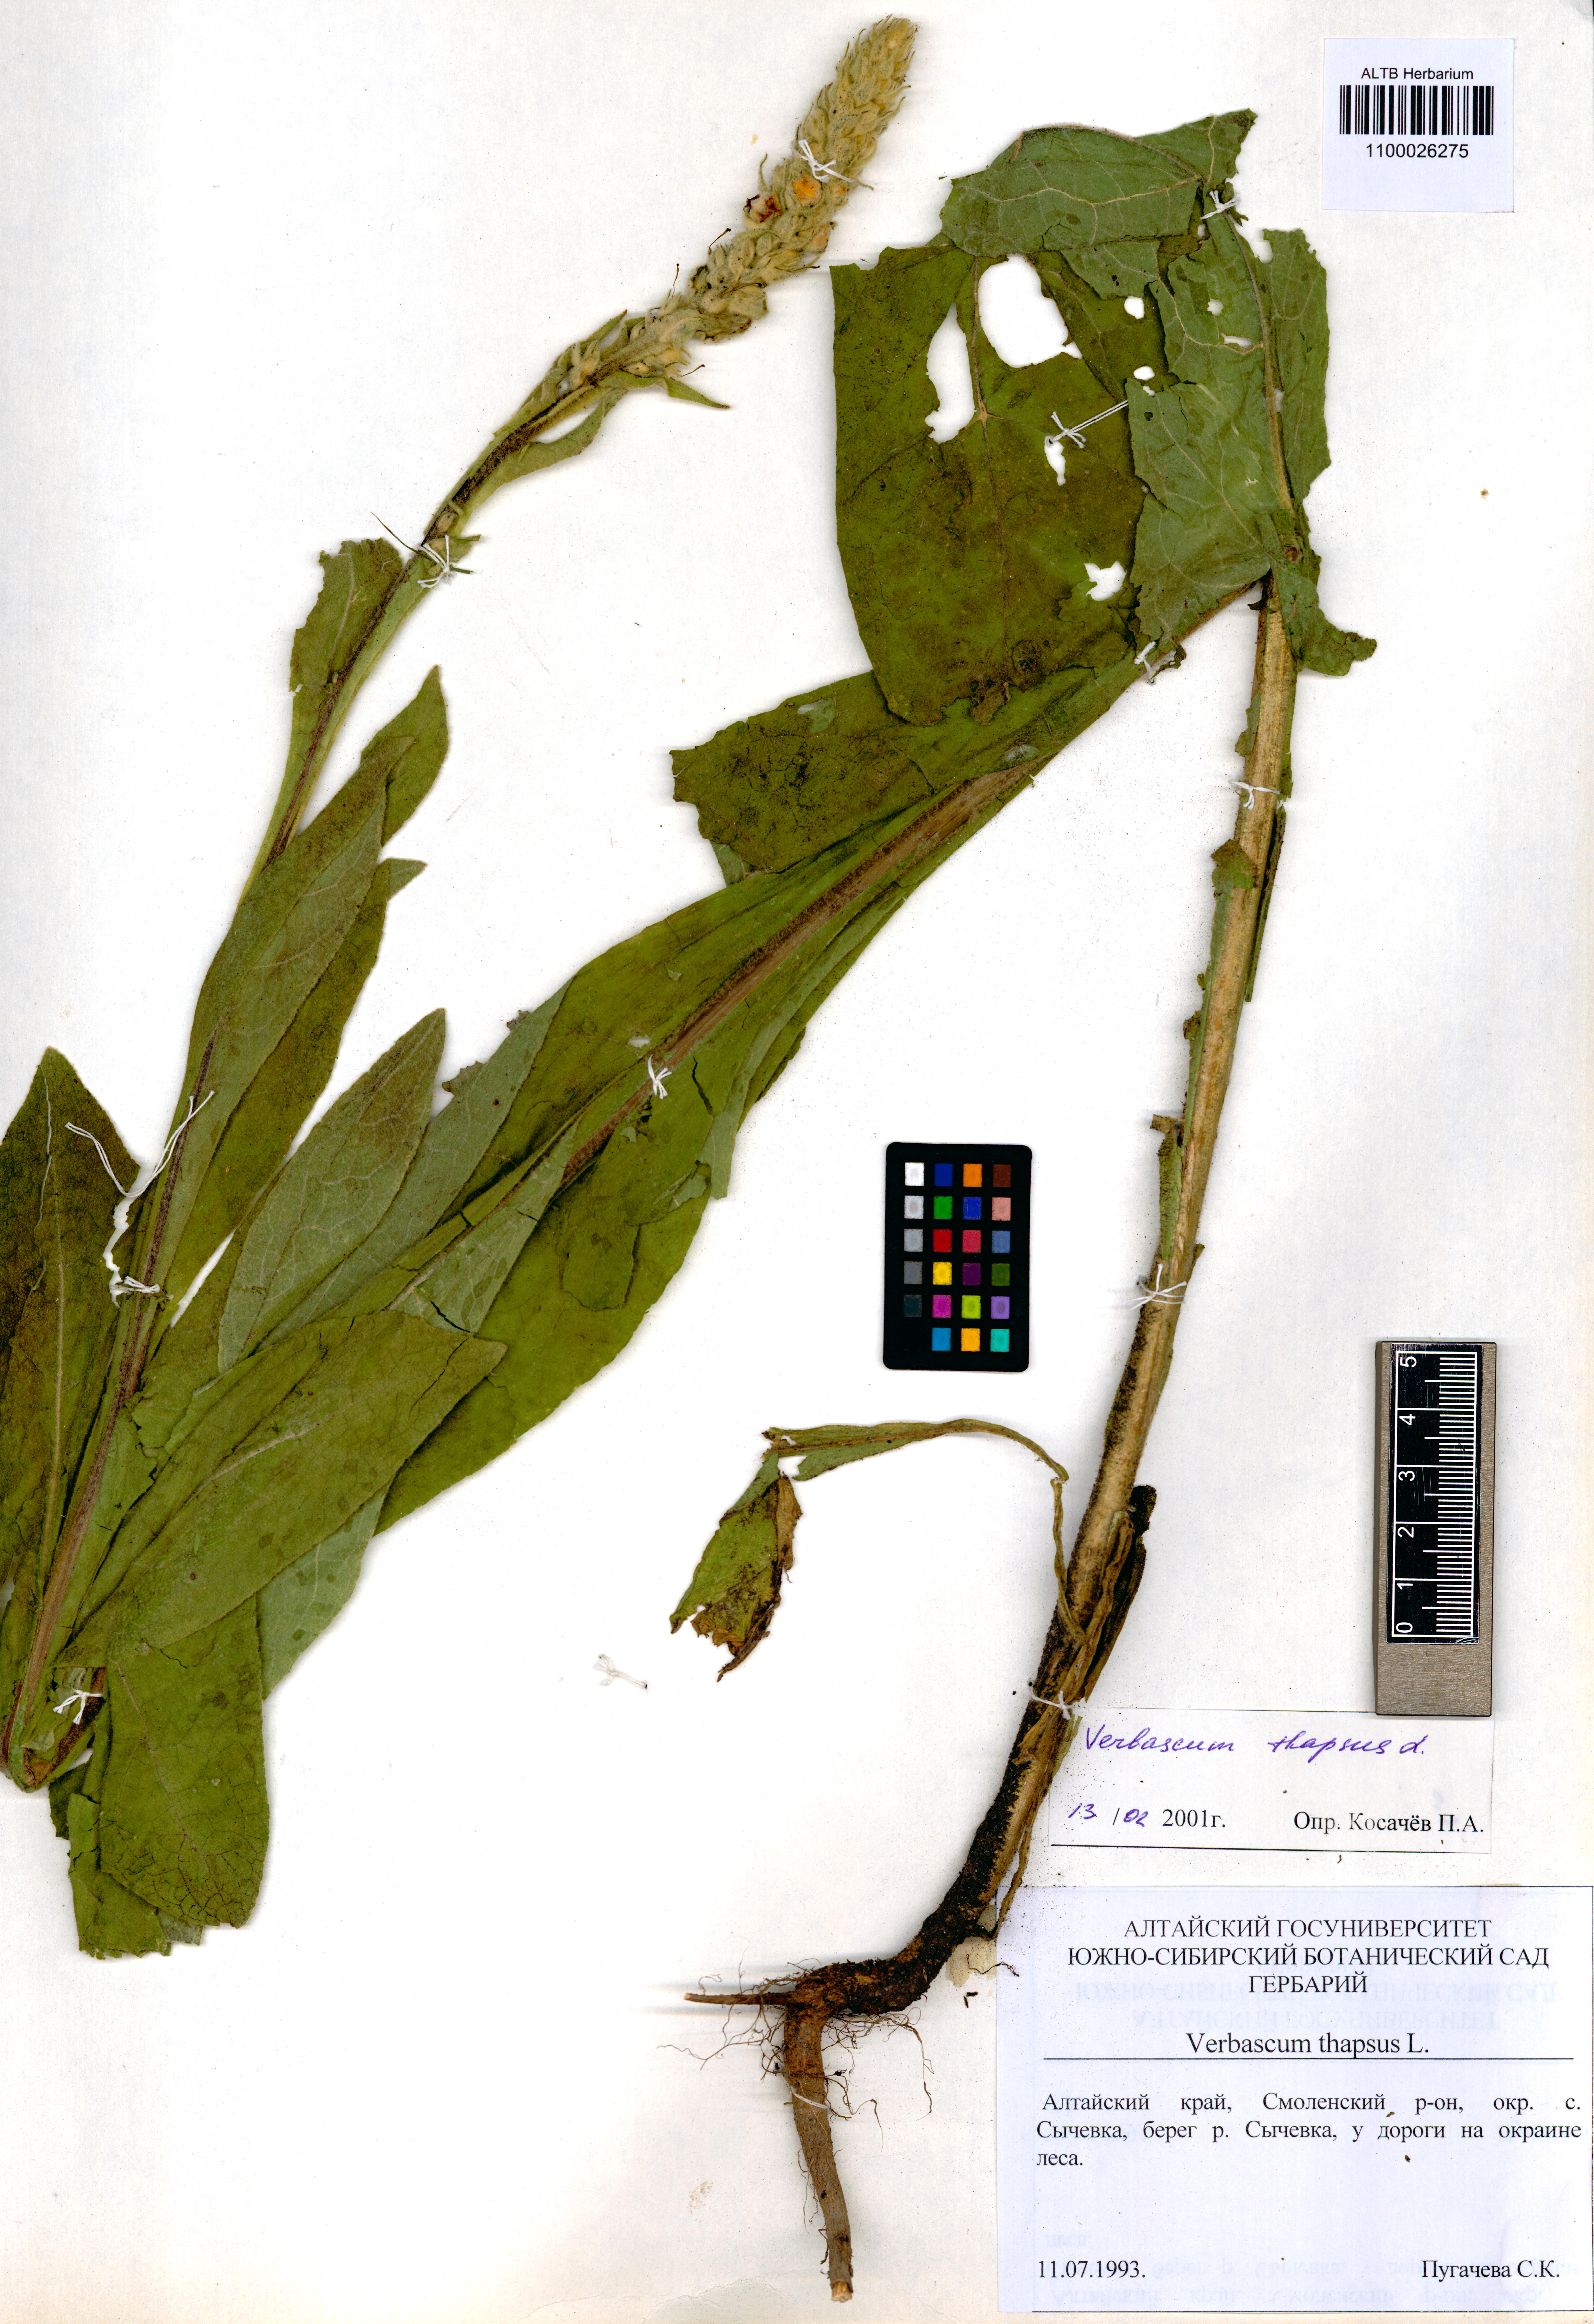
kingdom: Plantae
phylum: Tracheophyta
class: Magnoliopsida
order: Lamiales
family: Scrophulariaceae
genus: Verbascum
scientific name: Verbascum thapsus
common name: Common mullein
